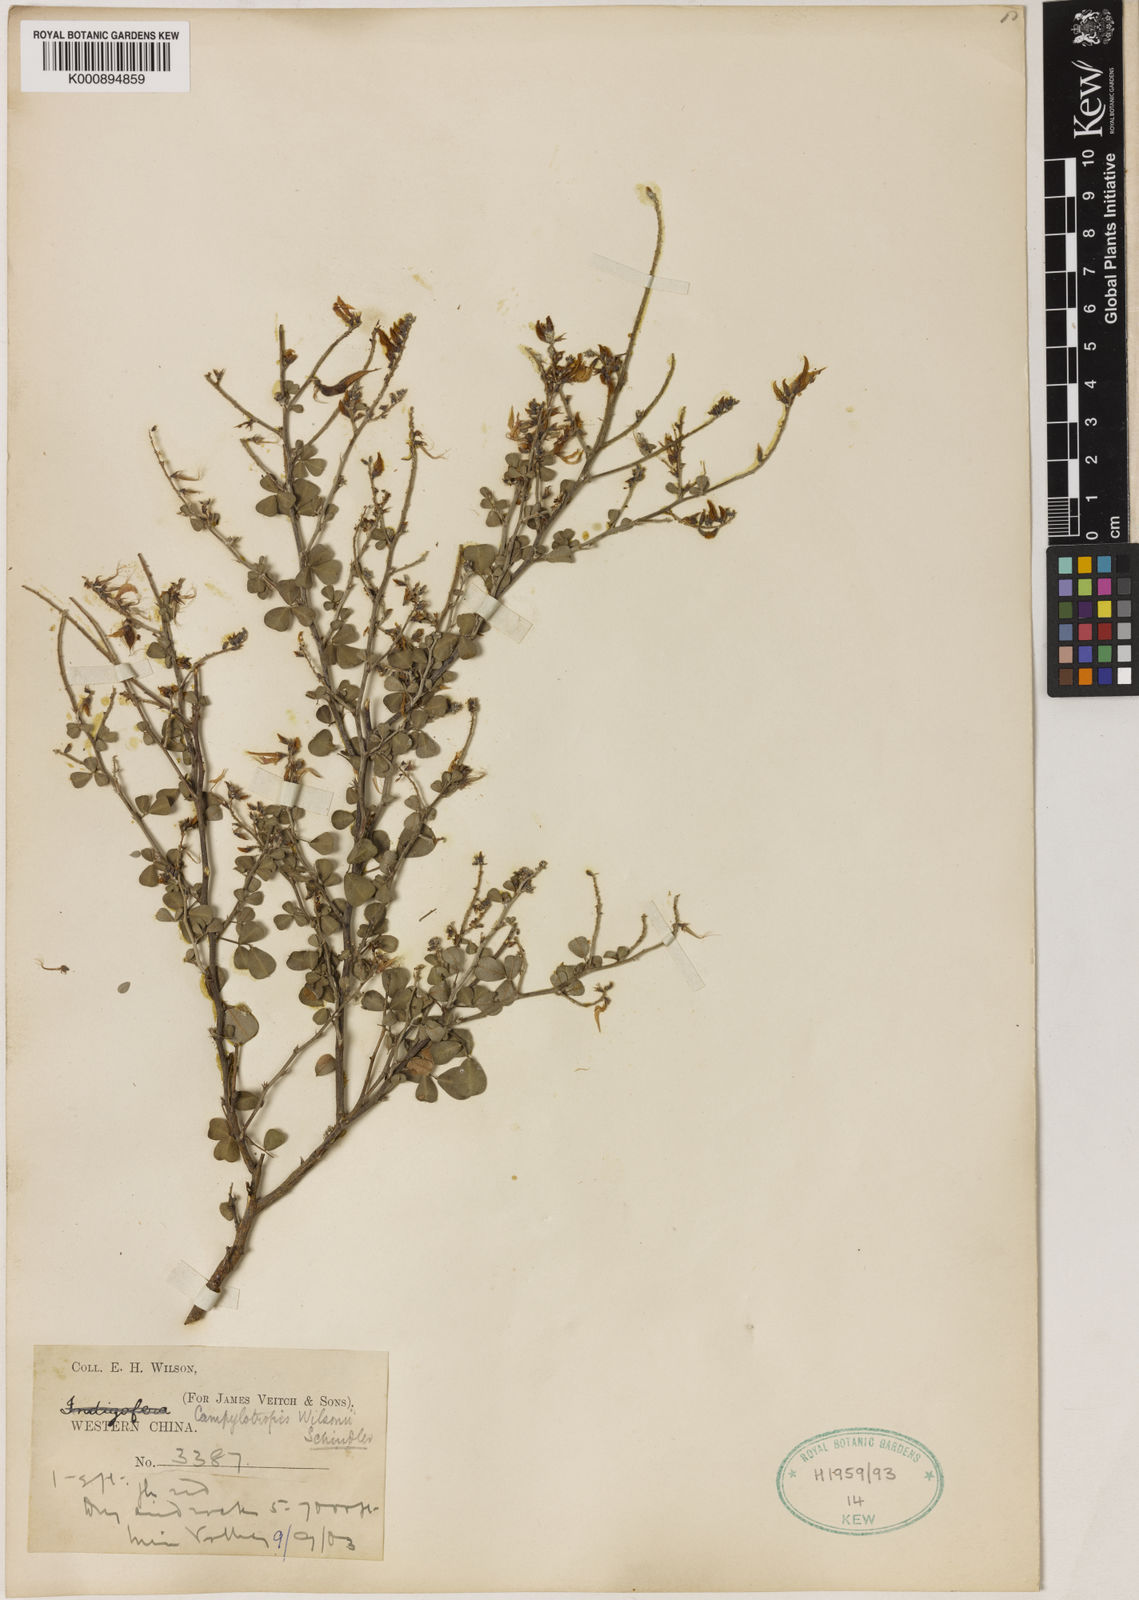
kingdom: Plantae
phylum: Tracheophyta
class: Magnoliopsida
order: Fabales
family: Fabaceae
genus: Campylotropis
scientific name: Campylotropis wilsonii
